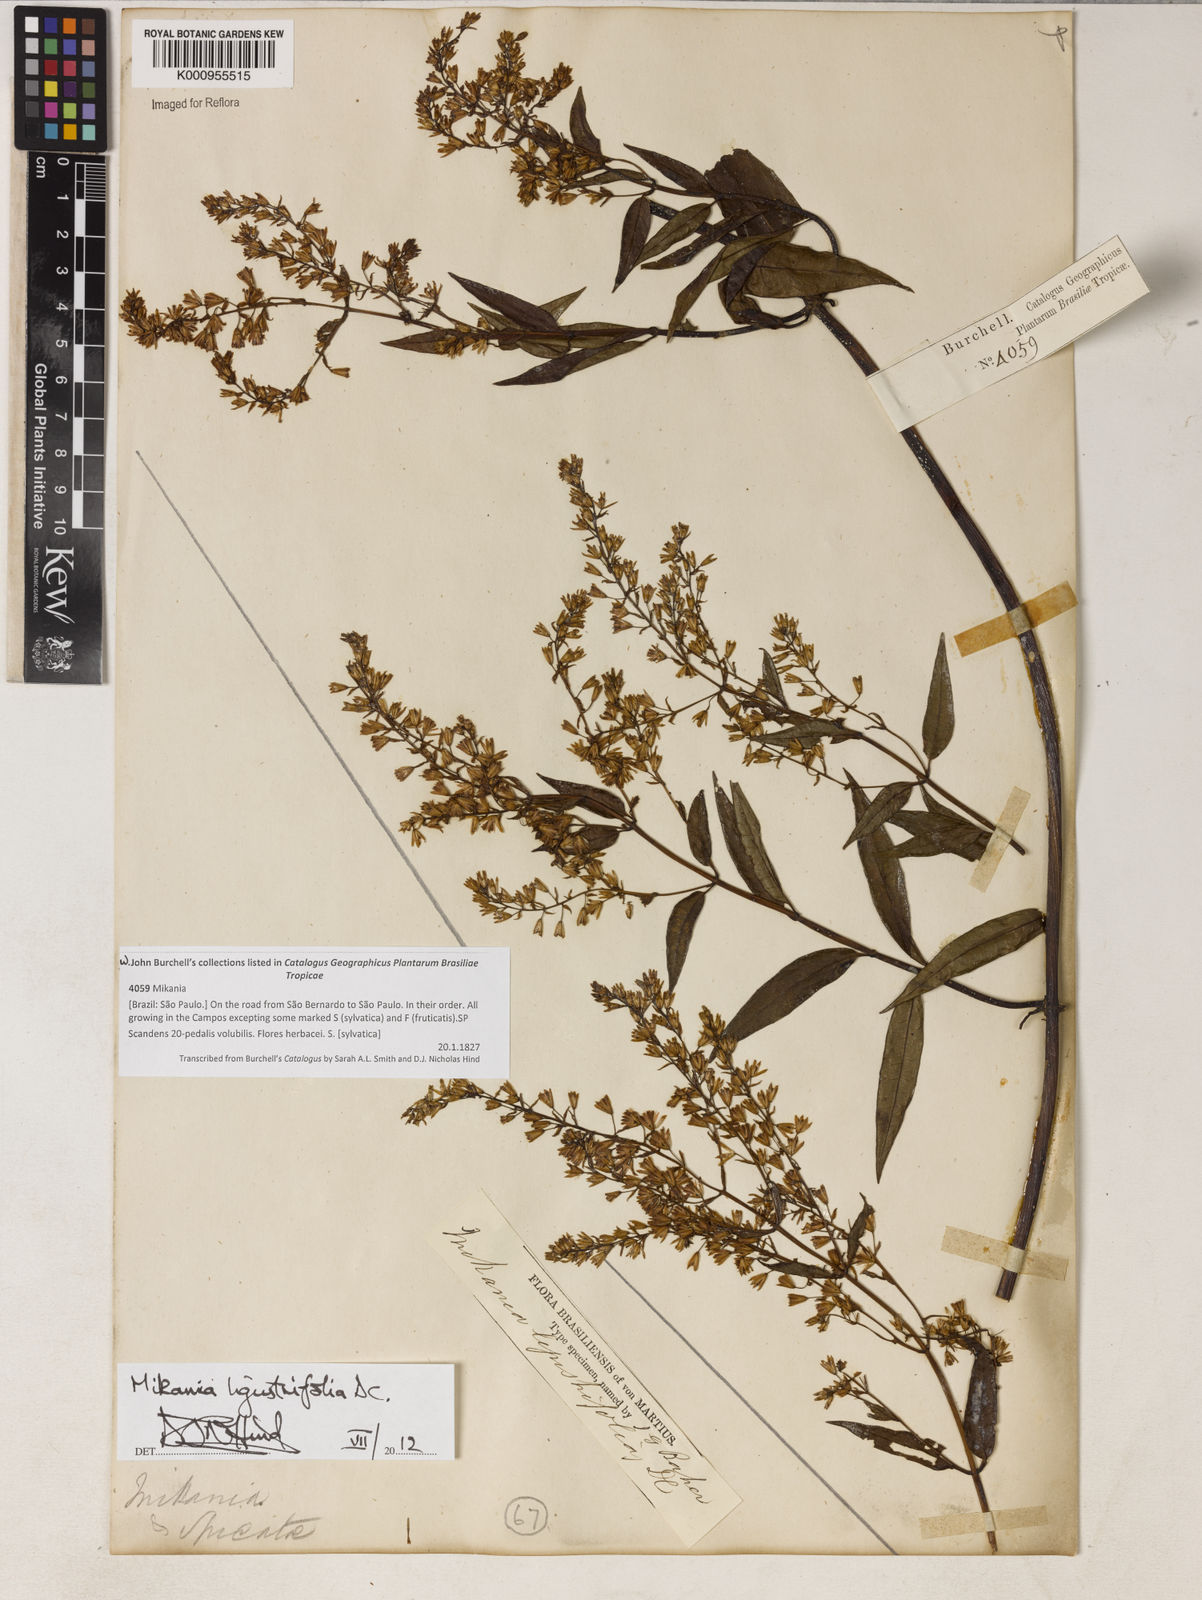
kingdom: Plantae
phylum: Tracheophyta
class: Magnoliopsida
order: Asterales
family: Asteraceae
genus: Mikania
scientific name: Mikania ligustrifolia
